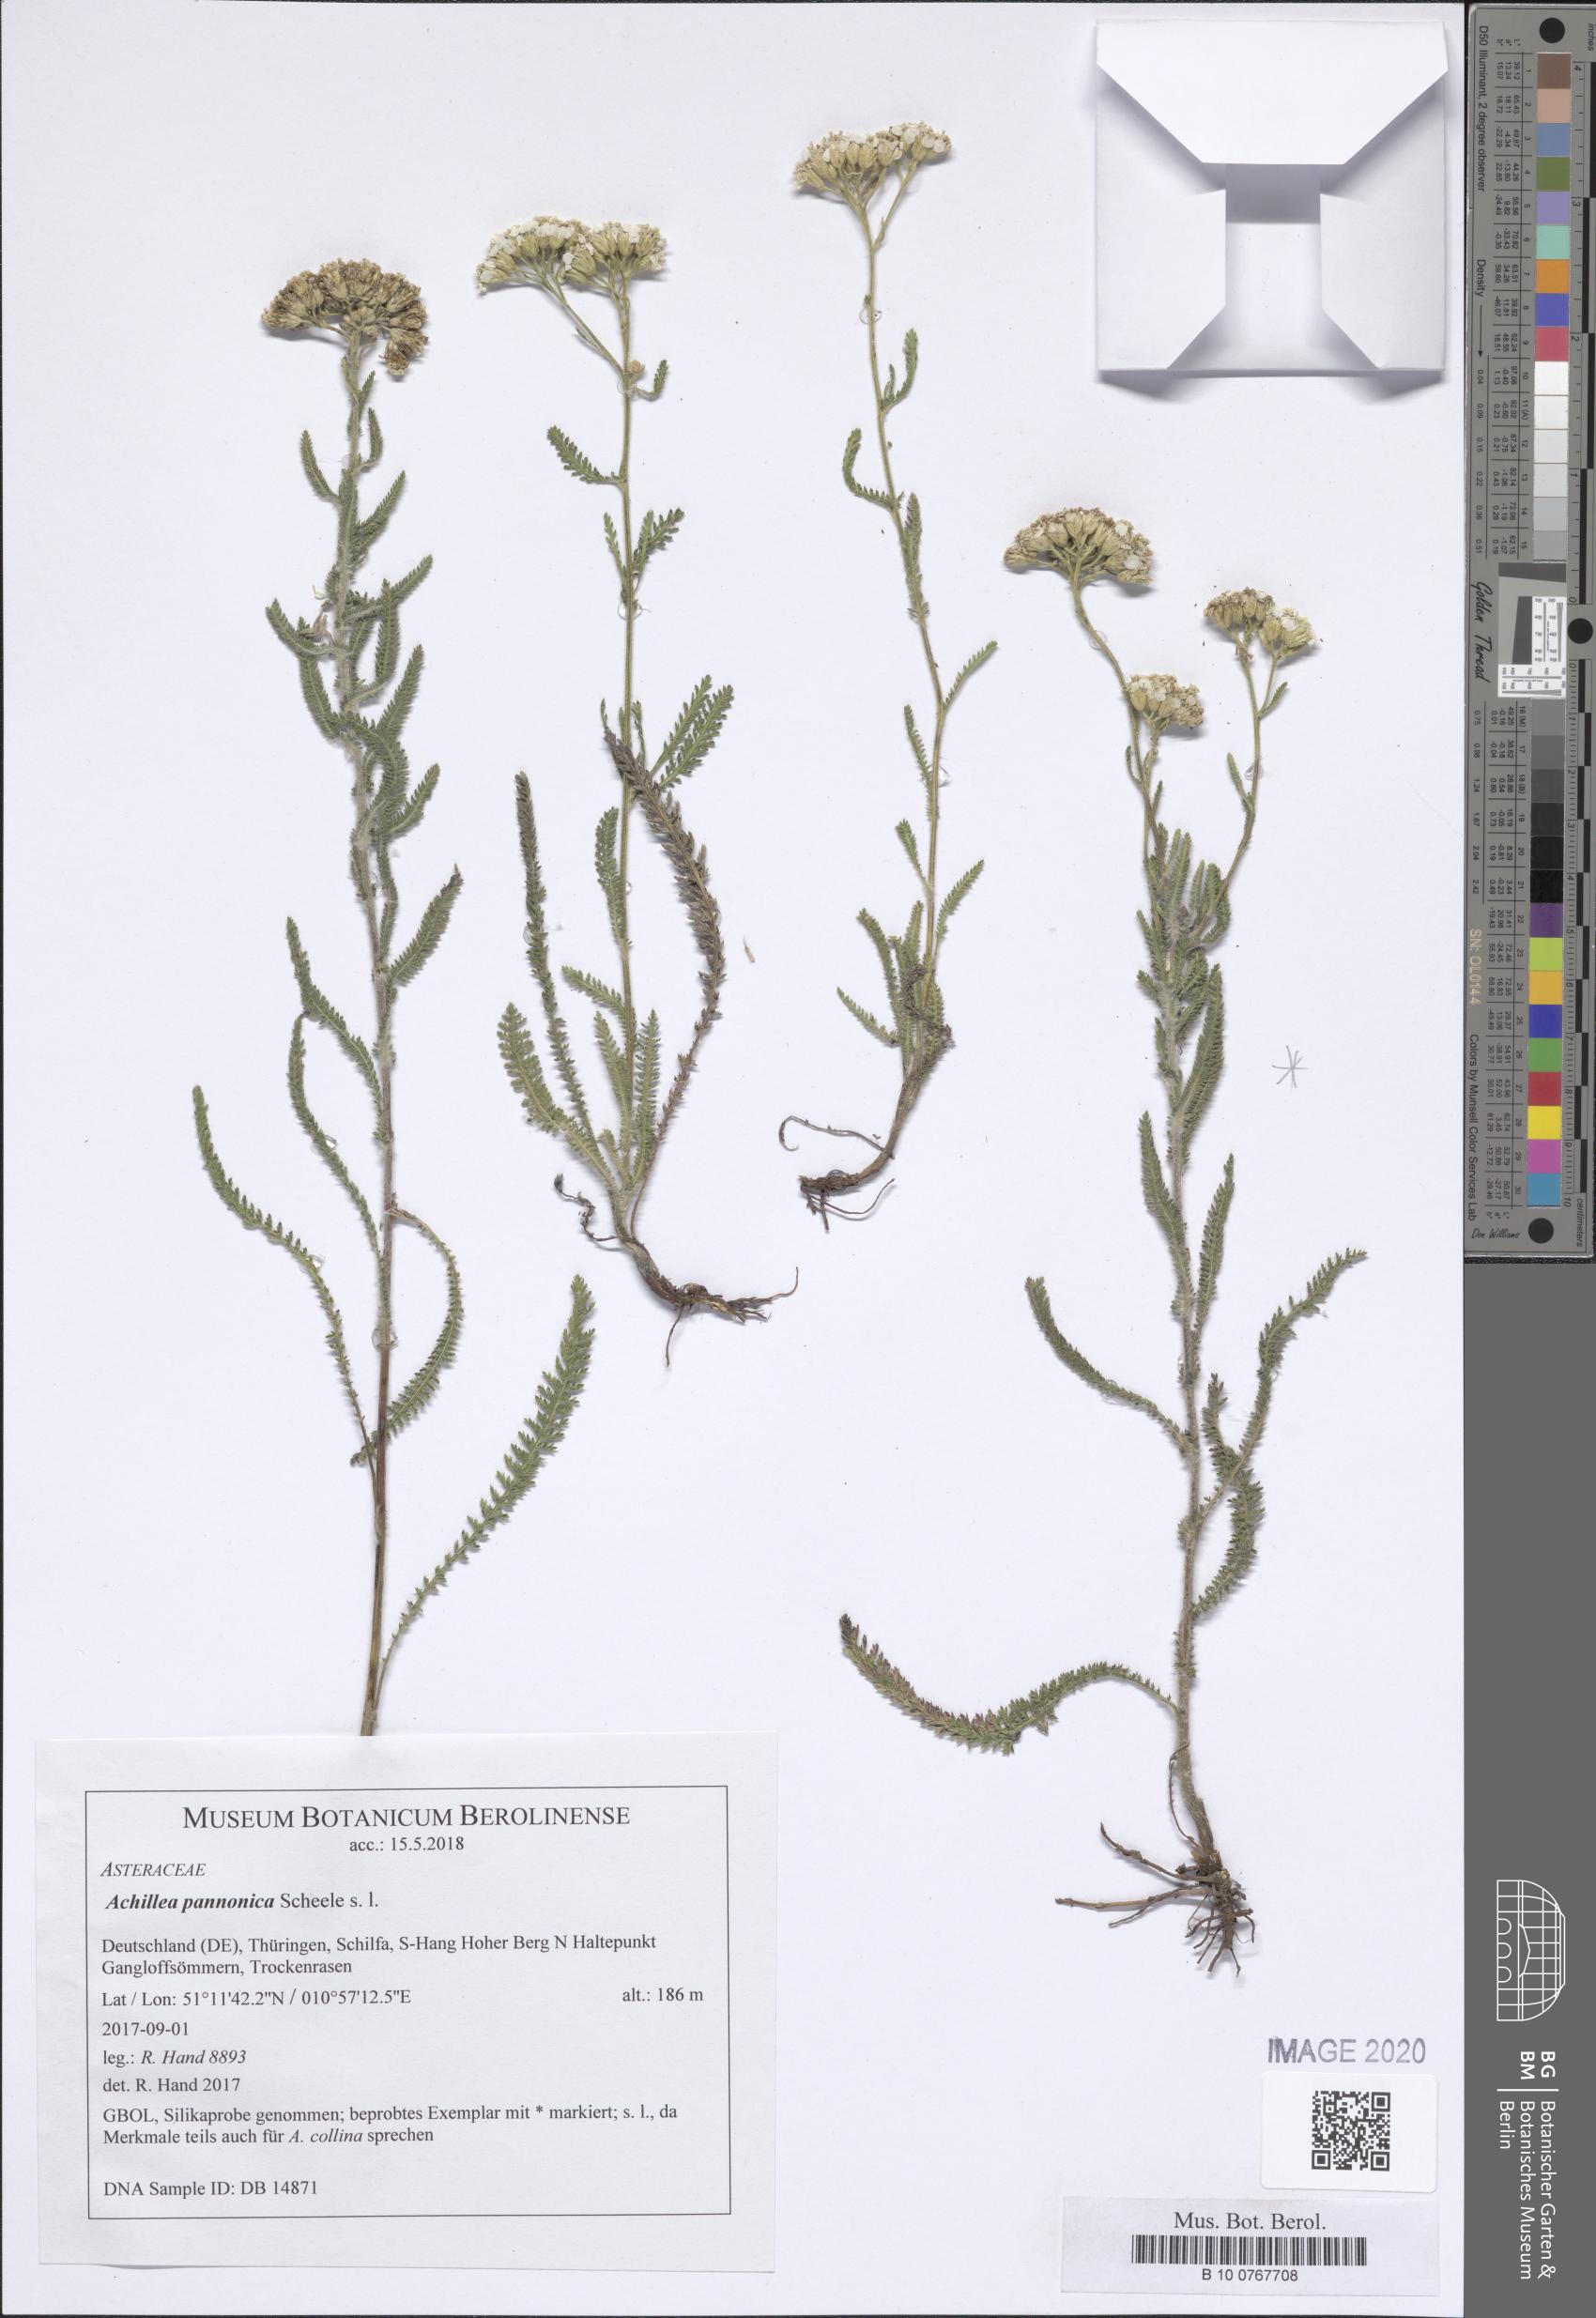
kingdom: Plantae
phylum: Tracheophyta
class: Magnoliopsida
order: Asterales
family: Asteraceae
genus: Achillea
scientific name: Achillea pannonica
